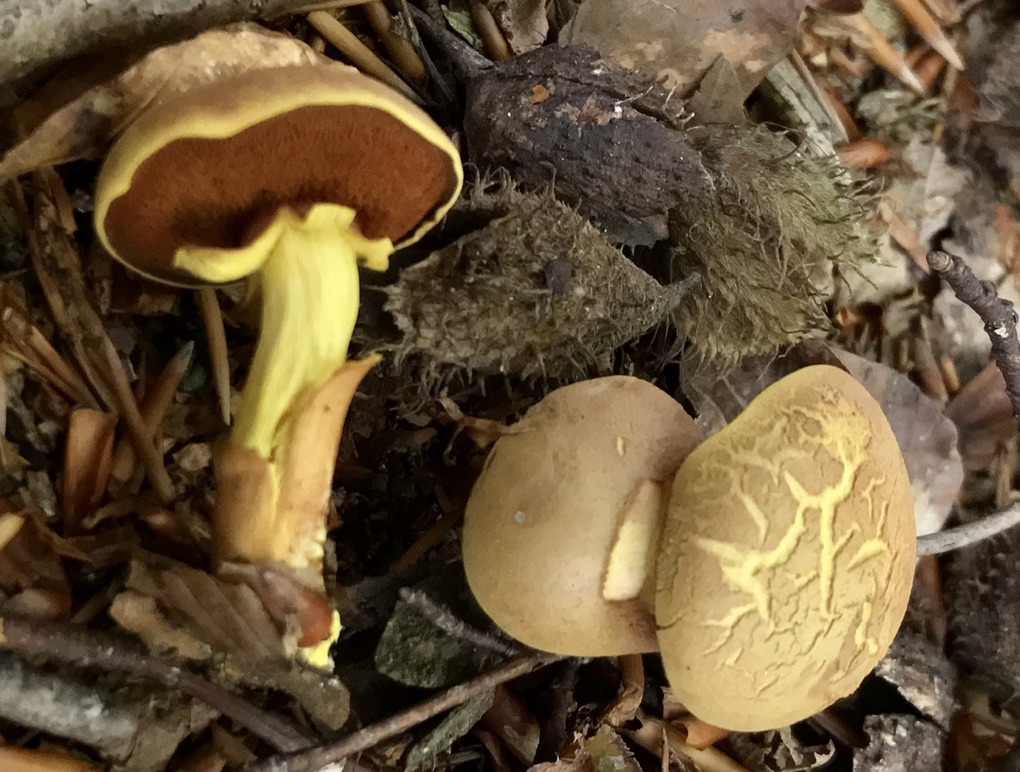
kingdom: Fungi
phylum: Basidiomycota
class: Agaricomycetes
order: Boletales
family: Boletaceae
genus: Chalciporus
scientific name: Chalciporus piperatus
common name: peberrørhat
